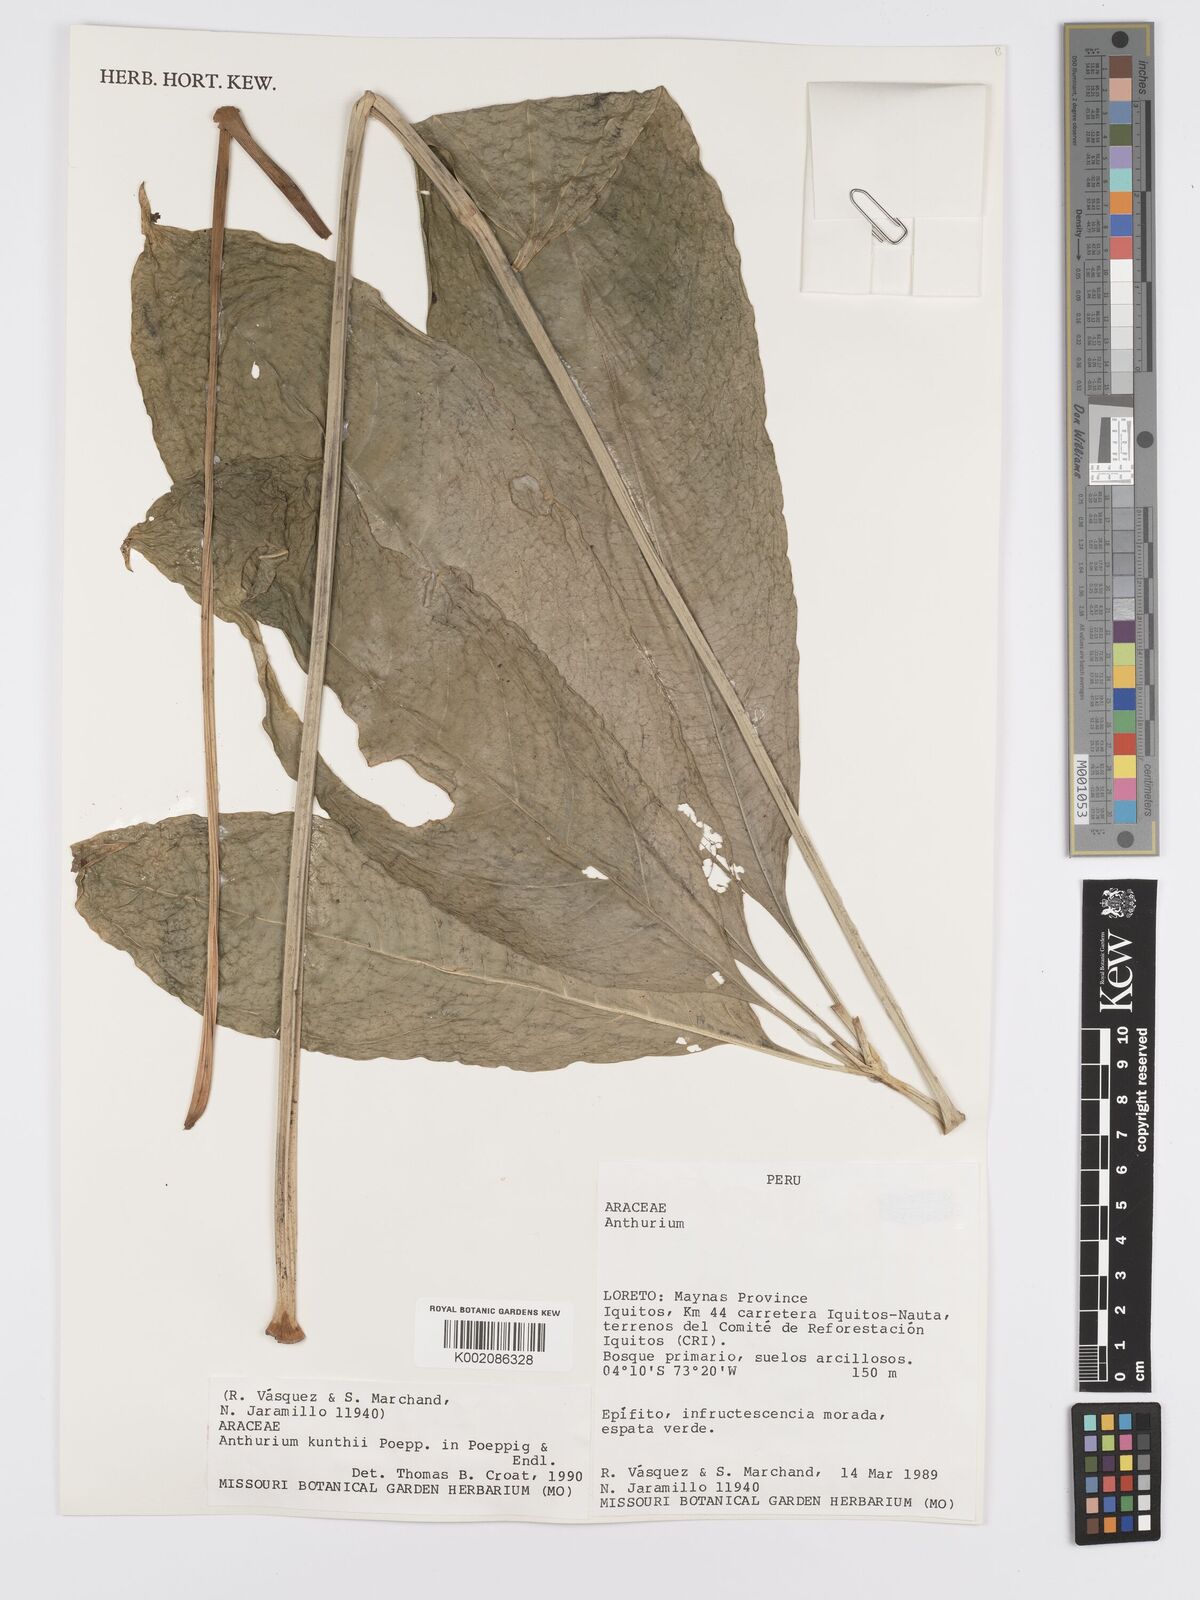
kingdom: Plantae
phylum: Tracheophyta
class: Liliopsida
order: Alismatales
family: Araceae
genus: Anthurium
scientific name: Anthurium kunthii
